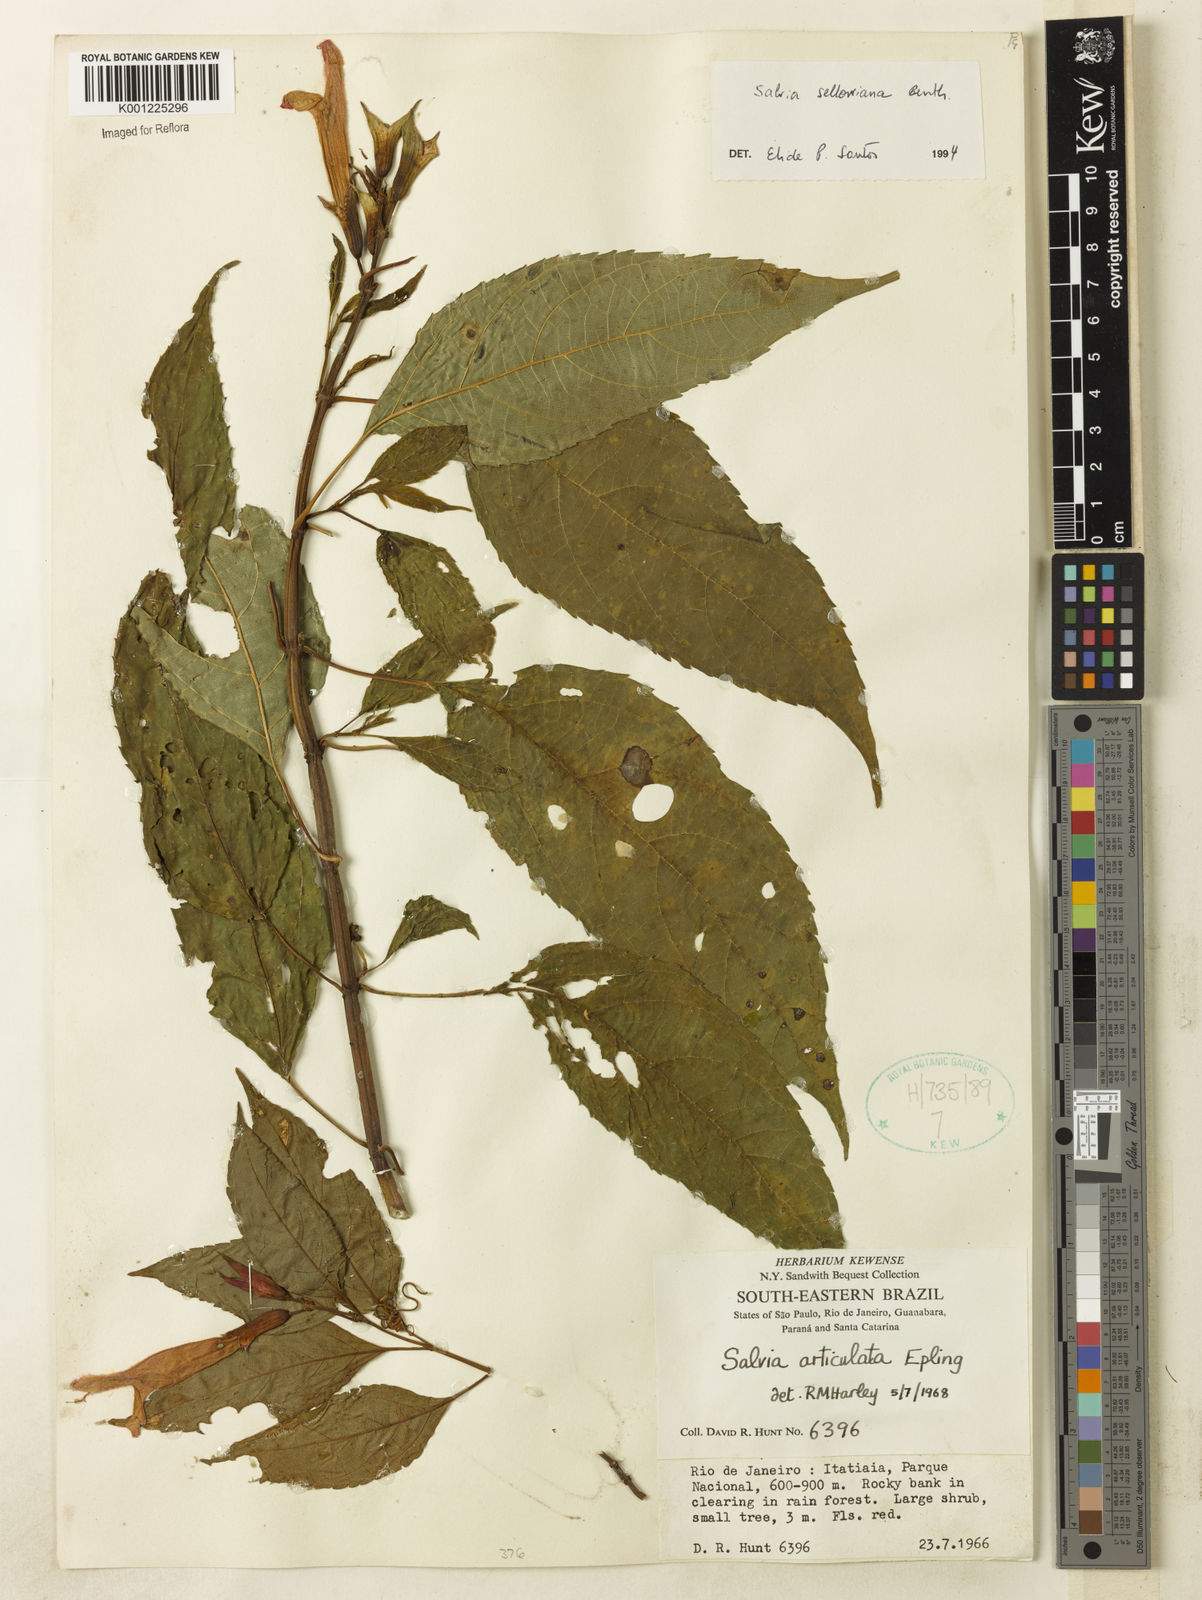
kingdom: Plantae
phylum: Tracheophyta
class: Magnoliopsida
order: Lamiales
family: Lamiaceae
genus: Salvia
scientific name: Salvia sellowiana
